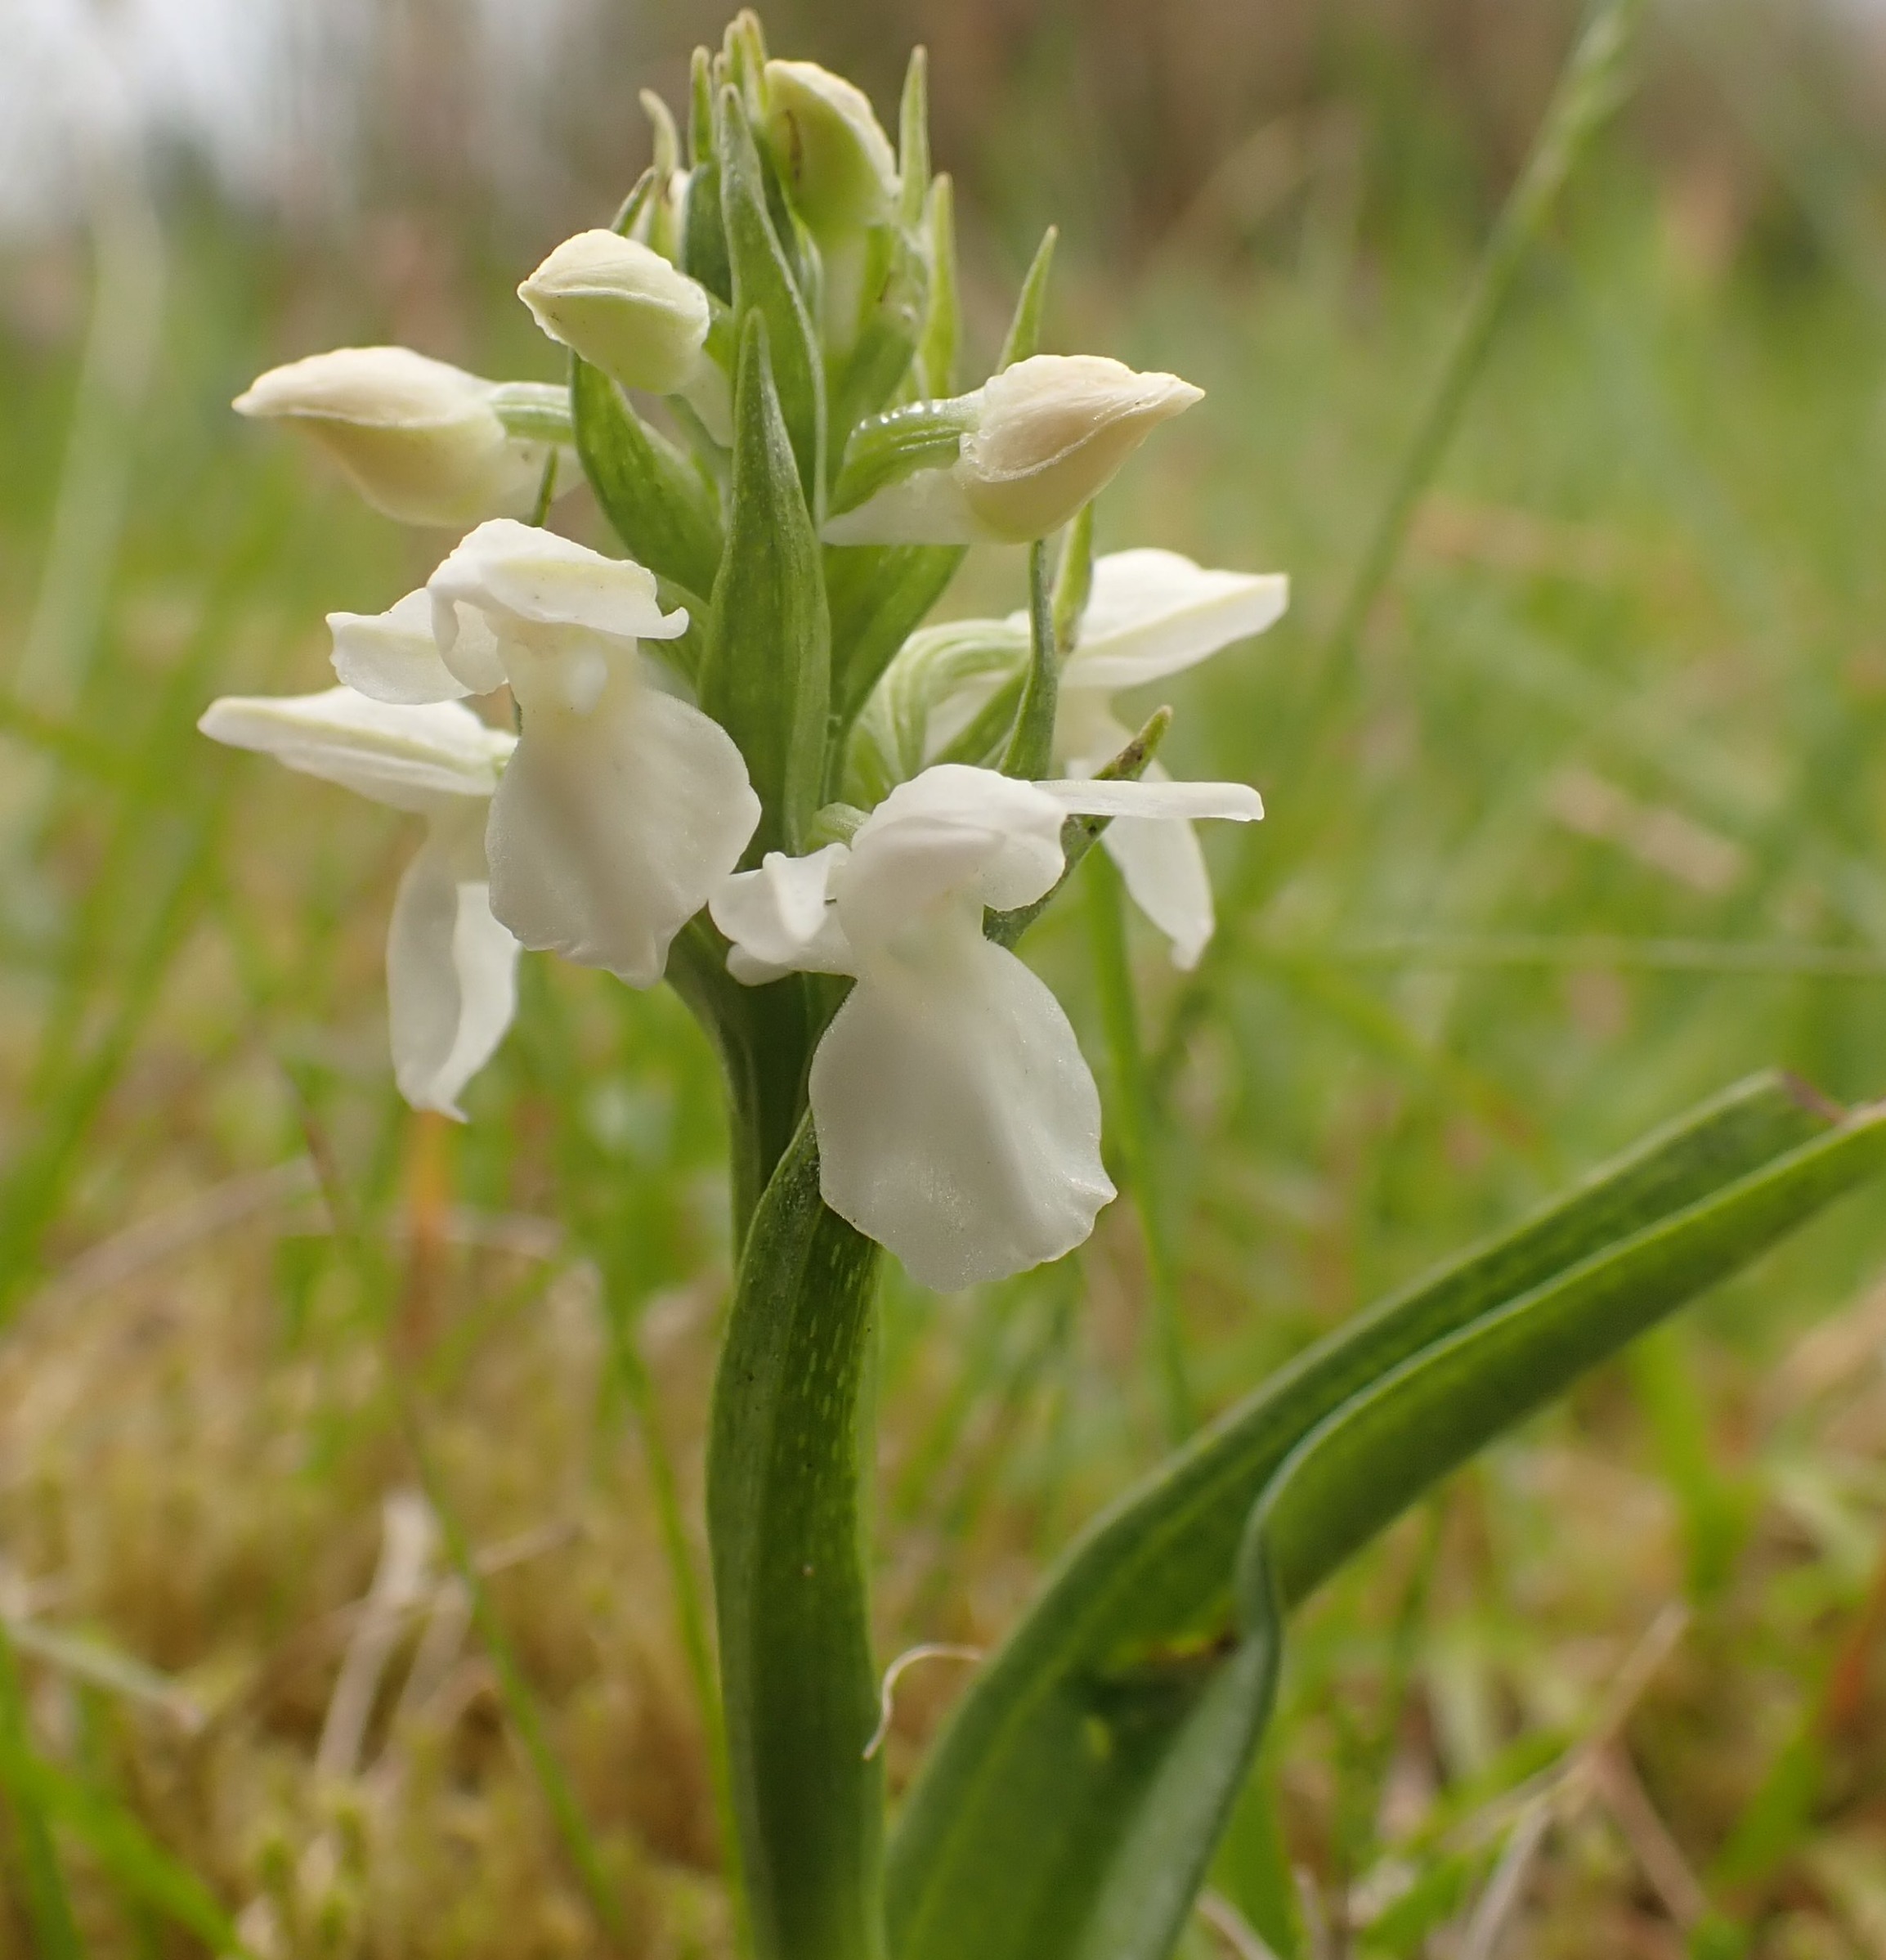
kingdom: Plantae
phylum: Tracheophyta
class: Liliopsida
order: Asparagales
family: Orchidaceae
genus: Dactylorhiza
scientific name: Dactylorhiza majalis
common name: Thy-gøgeurt
